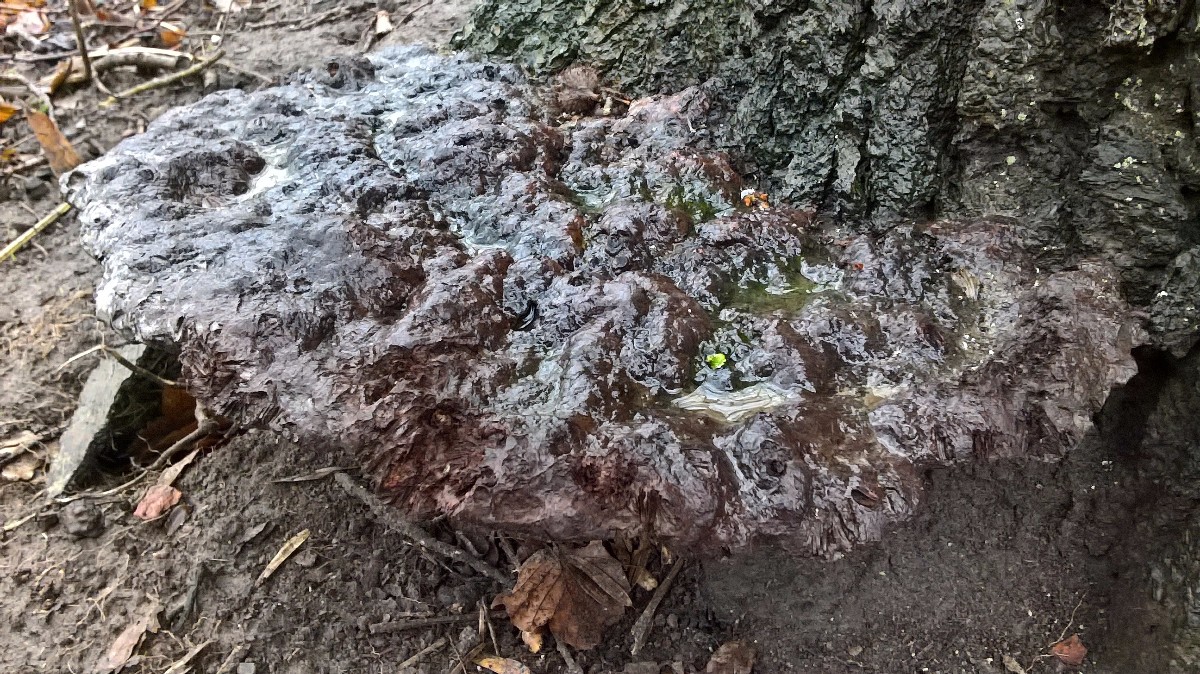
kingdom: Fungi
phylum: Basidiomycota
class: Agaricomycetes
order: Hymenochaetales
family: Hymenochaetaceae
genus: Pseudoinonotus
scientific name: Pseudoinonotus dryadeus
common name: ege-spejlporesvamp
